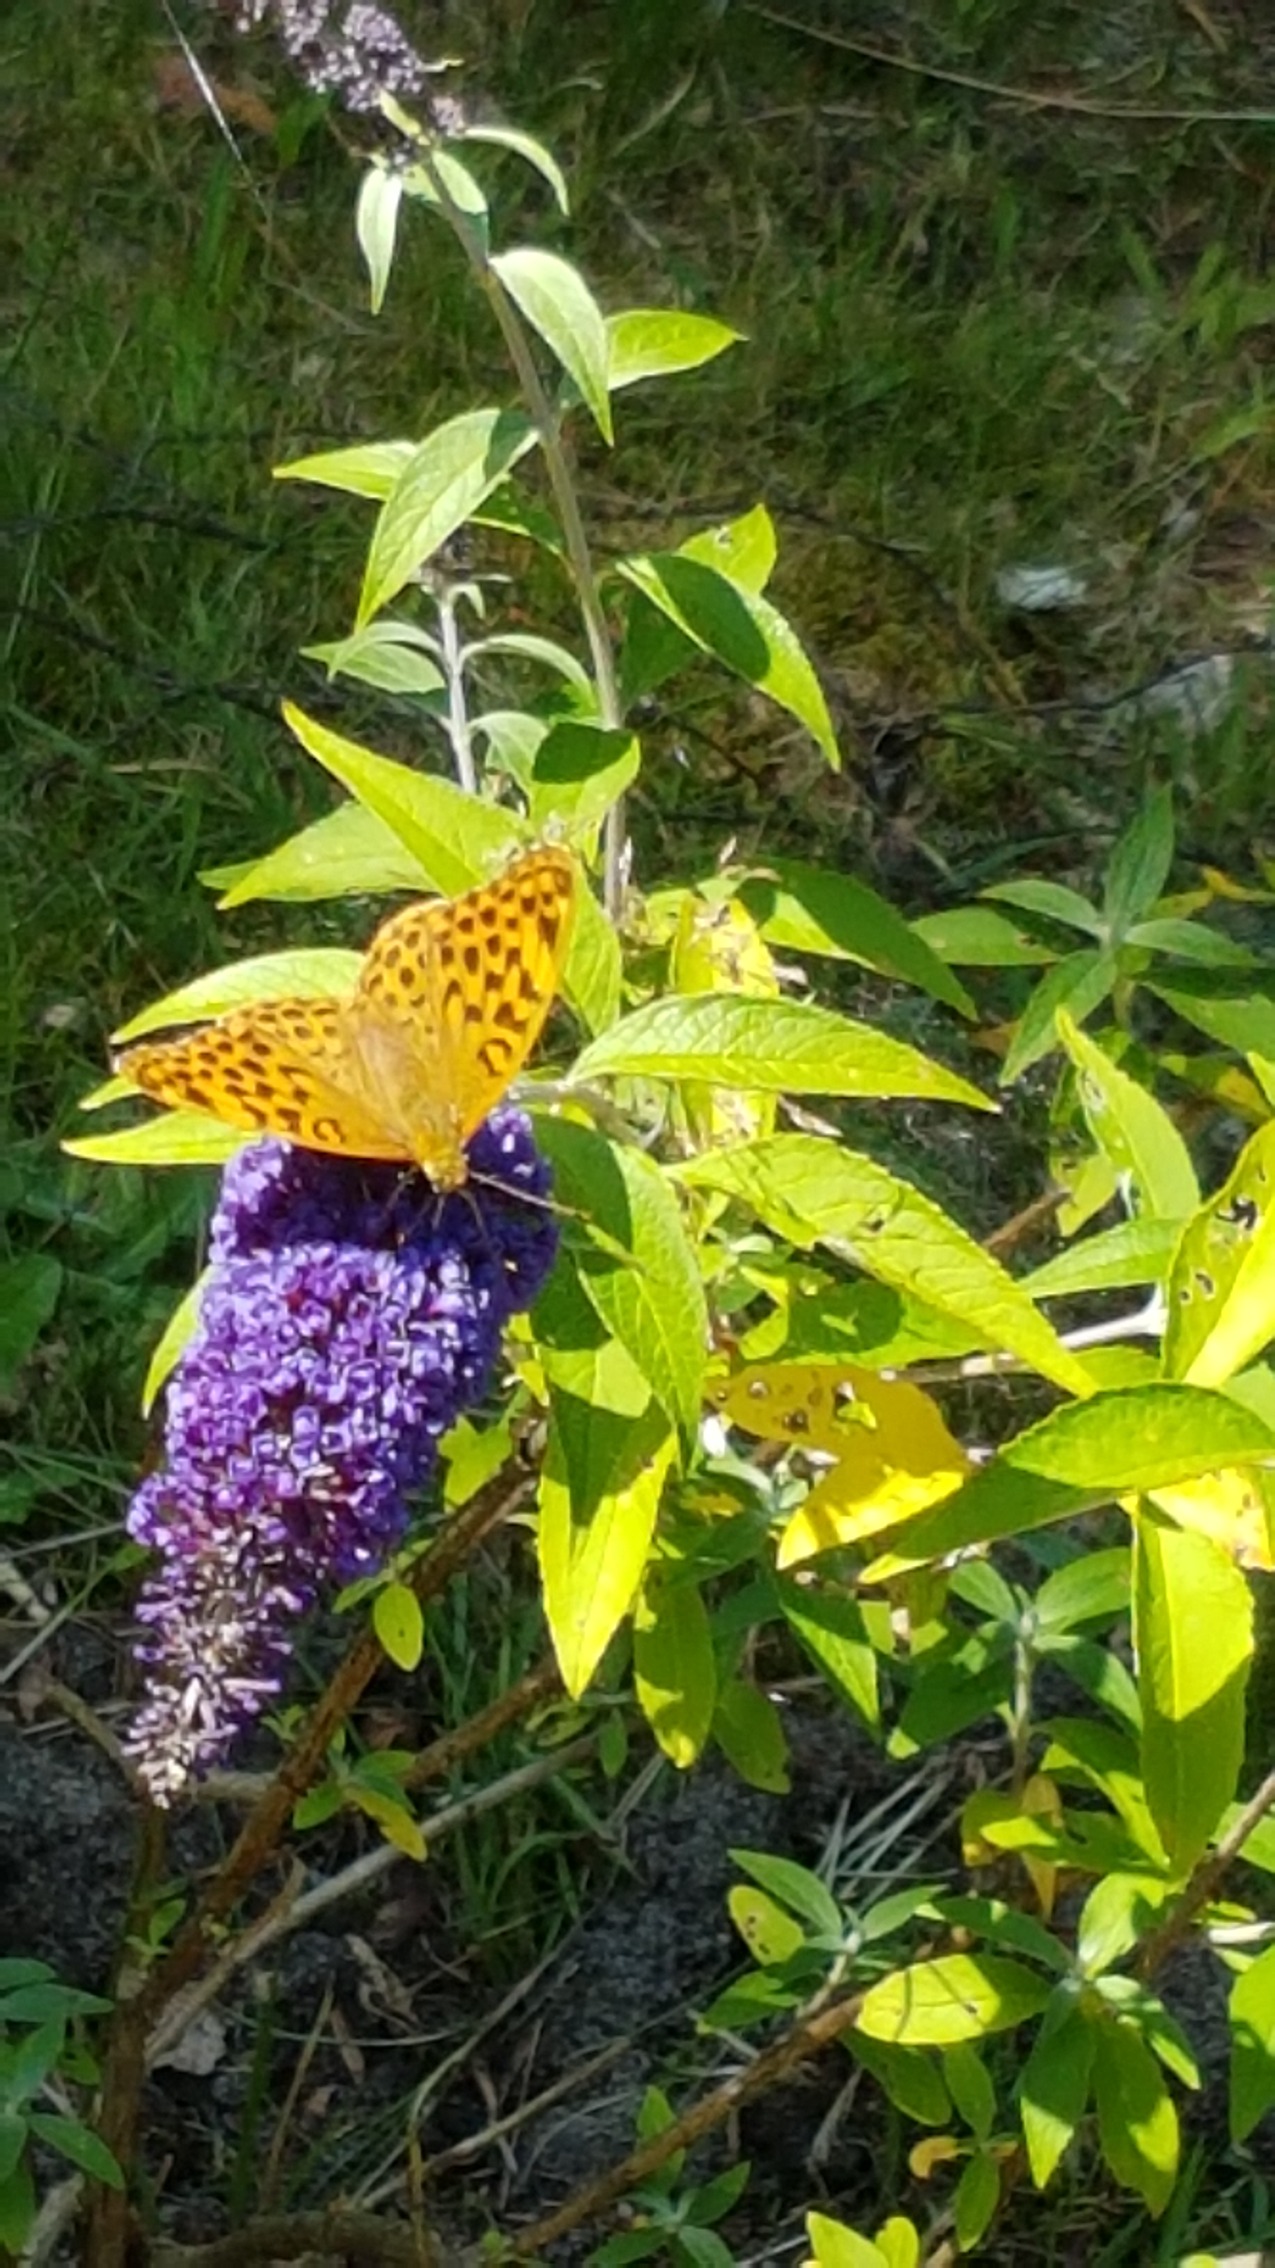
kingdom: Animalia
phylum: Arthropoda
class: Insecta
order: Lepidoptera
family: Nymphalidae
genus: Argynnis
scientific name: Argynnis paphia
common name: Kejserkåbe
